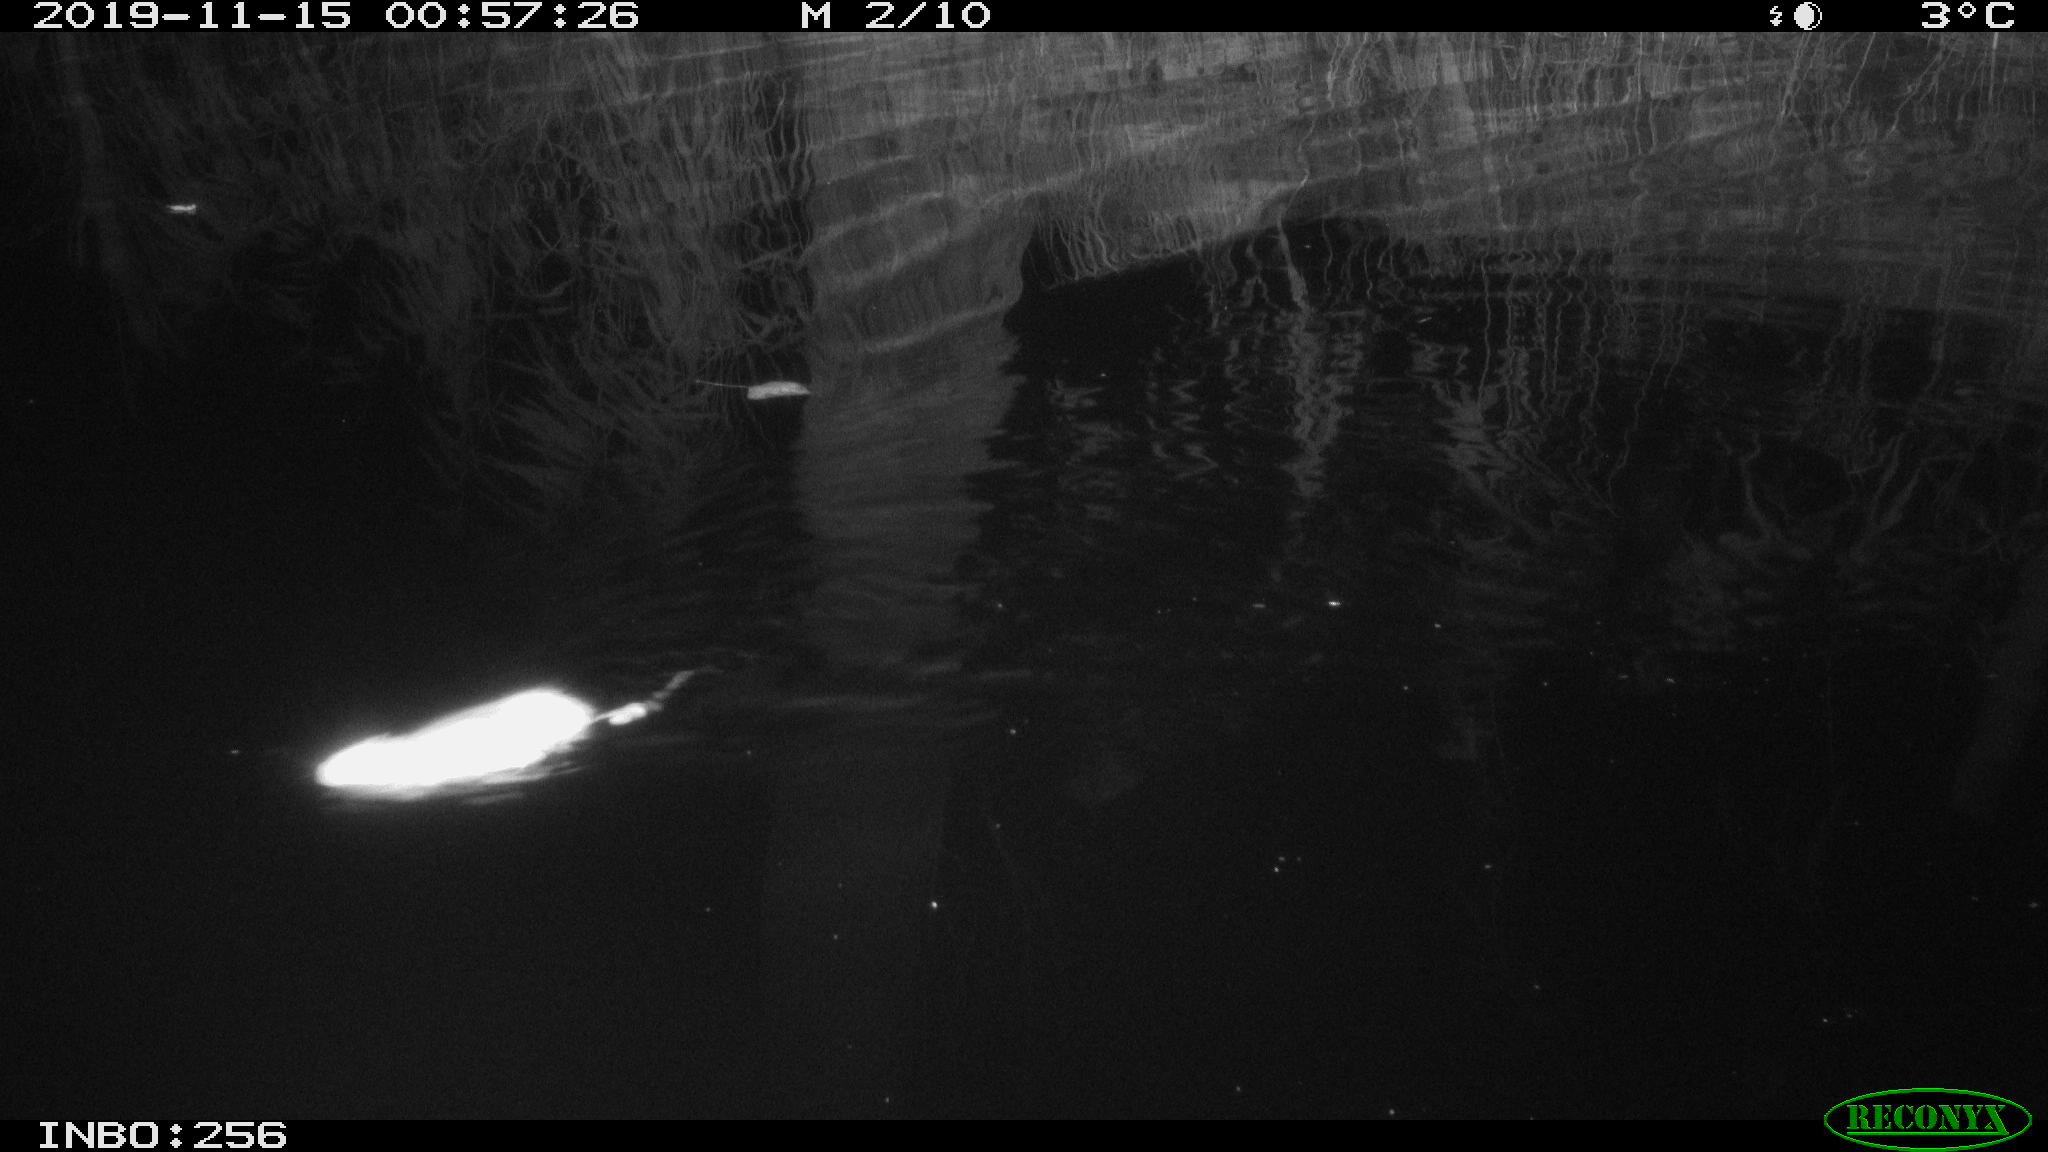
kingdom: Animalia
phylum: Chordata
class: Mammalia
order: Rodentia
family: Muridae
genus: Rattus
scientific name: Rattus norvegicus
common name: Brown rat
